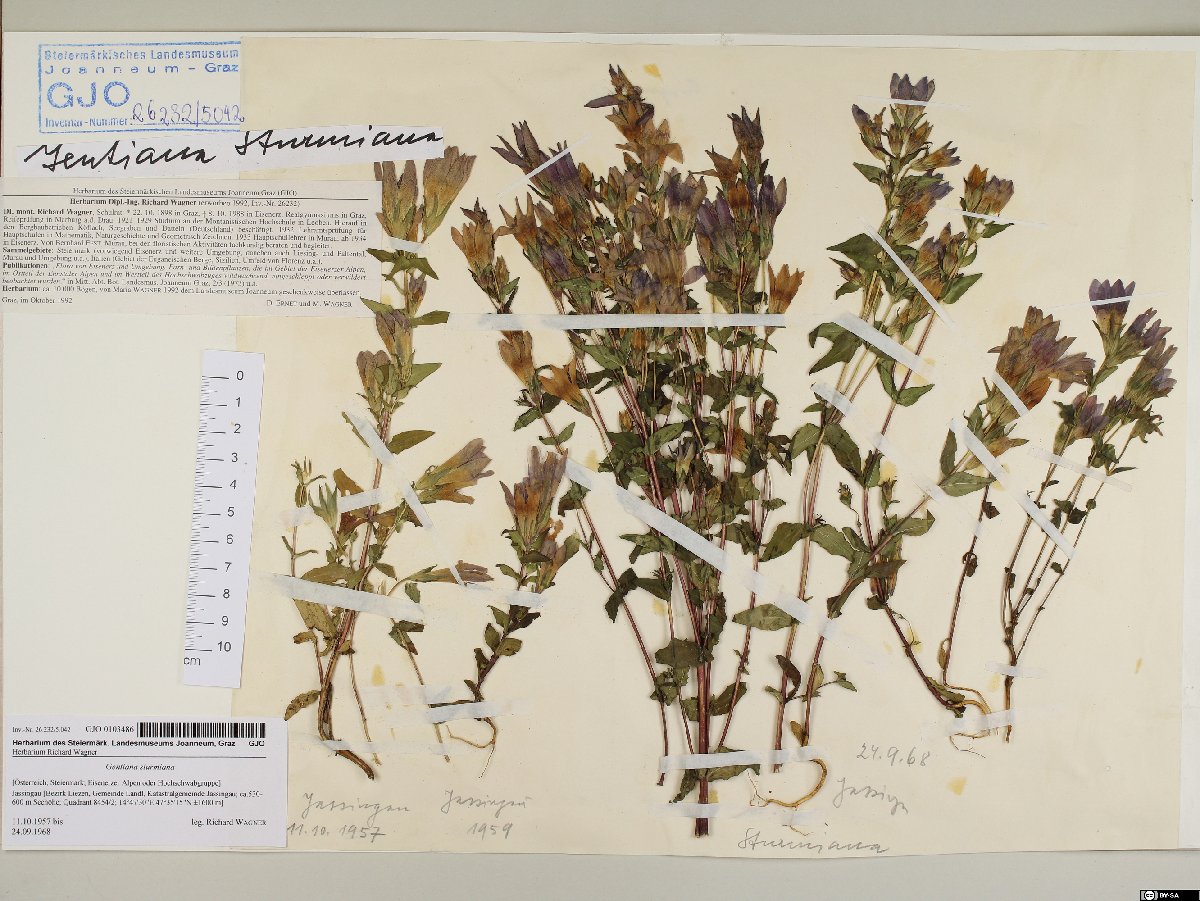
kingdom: Plantae
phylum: Tracheophyta
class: Magnoliopsida
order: Gentianales
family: Gentianaceae
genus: Gentianella
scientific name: Gentianella obtusifolia
